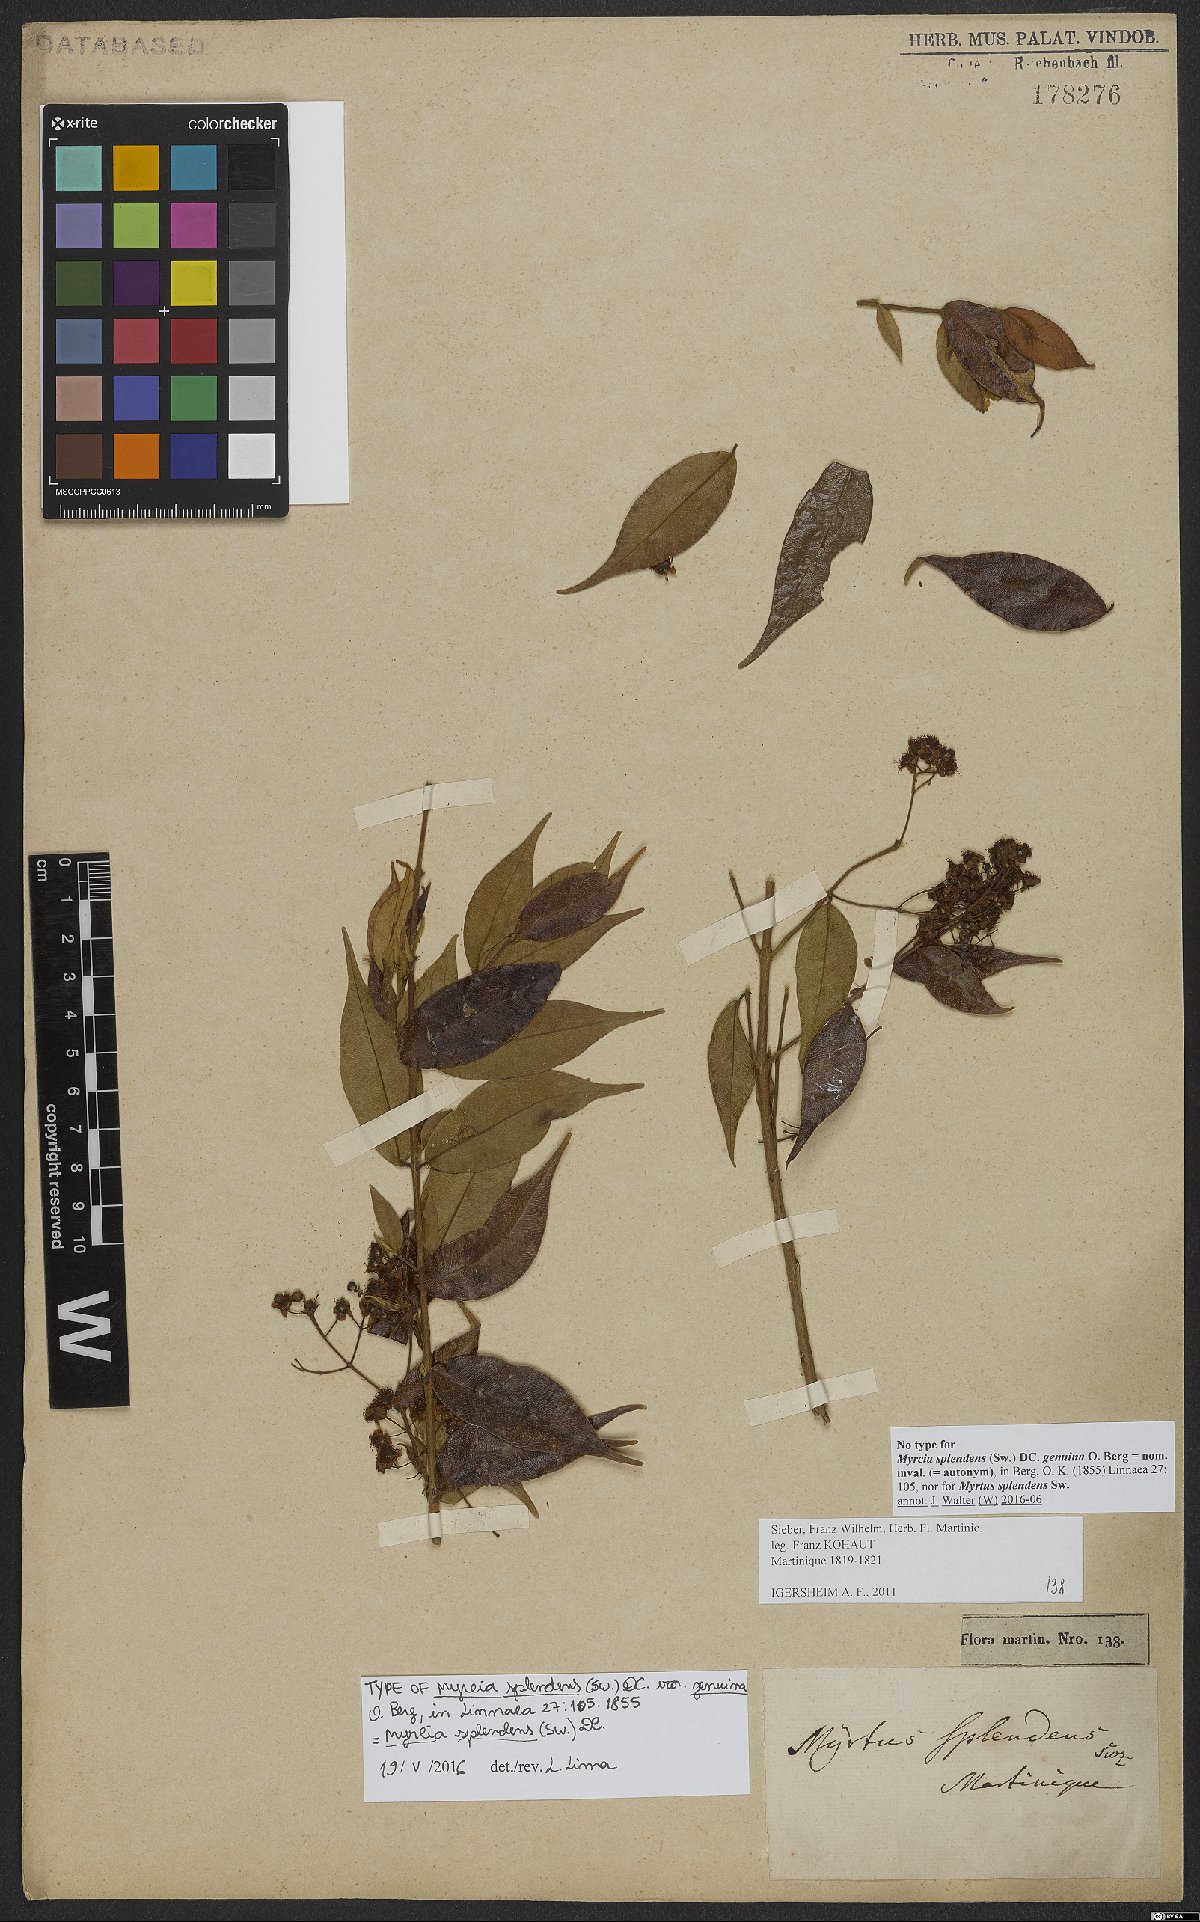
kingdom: Plantae
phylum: Tracheophyta
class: Magnoliopsida
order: Myrtales
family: Myrtaceae
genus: Myrcia
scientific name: Myrcia splendens
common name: Surinam cherry
